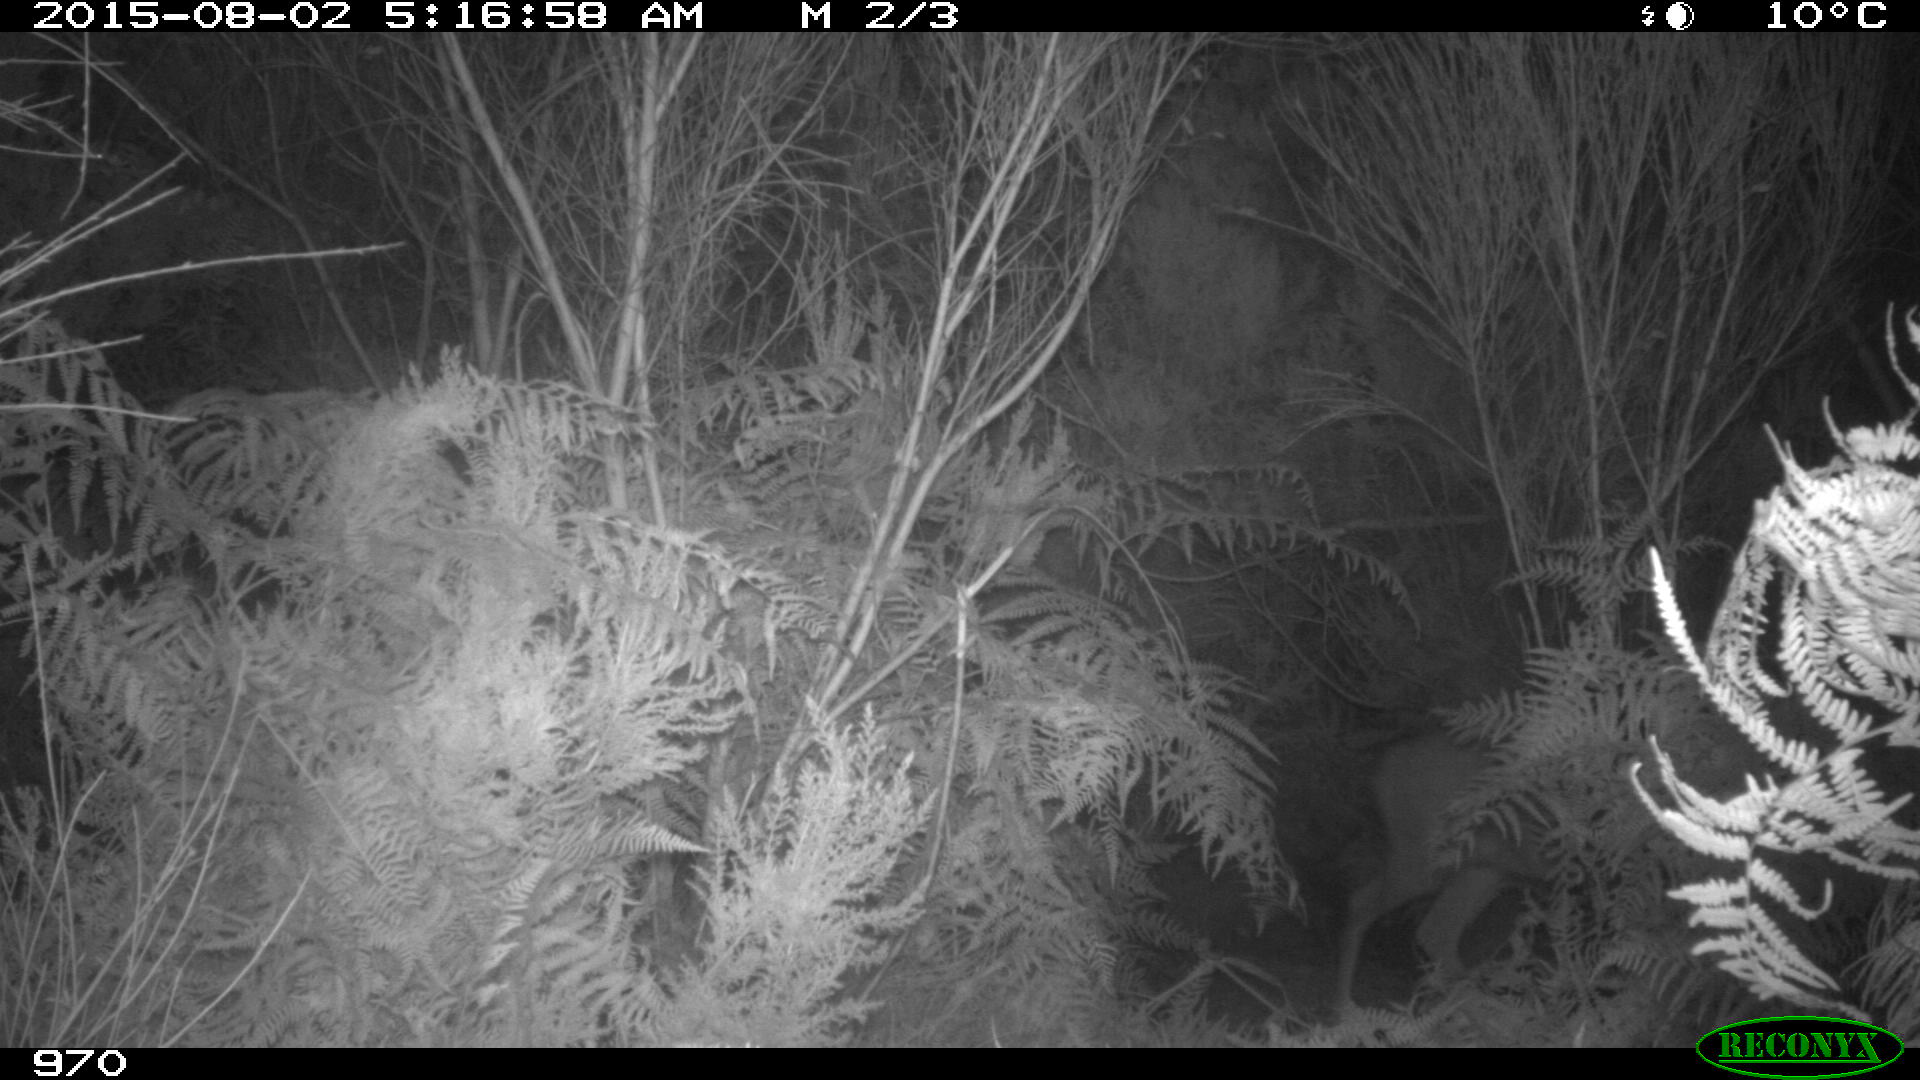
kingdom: Animalia
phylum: Chordata
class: Mammalia
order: Artiodactyla
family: Cervidae
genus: Capreolus
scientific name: Capreolus capreolus
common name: Western roe deer
